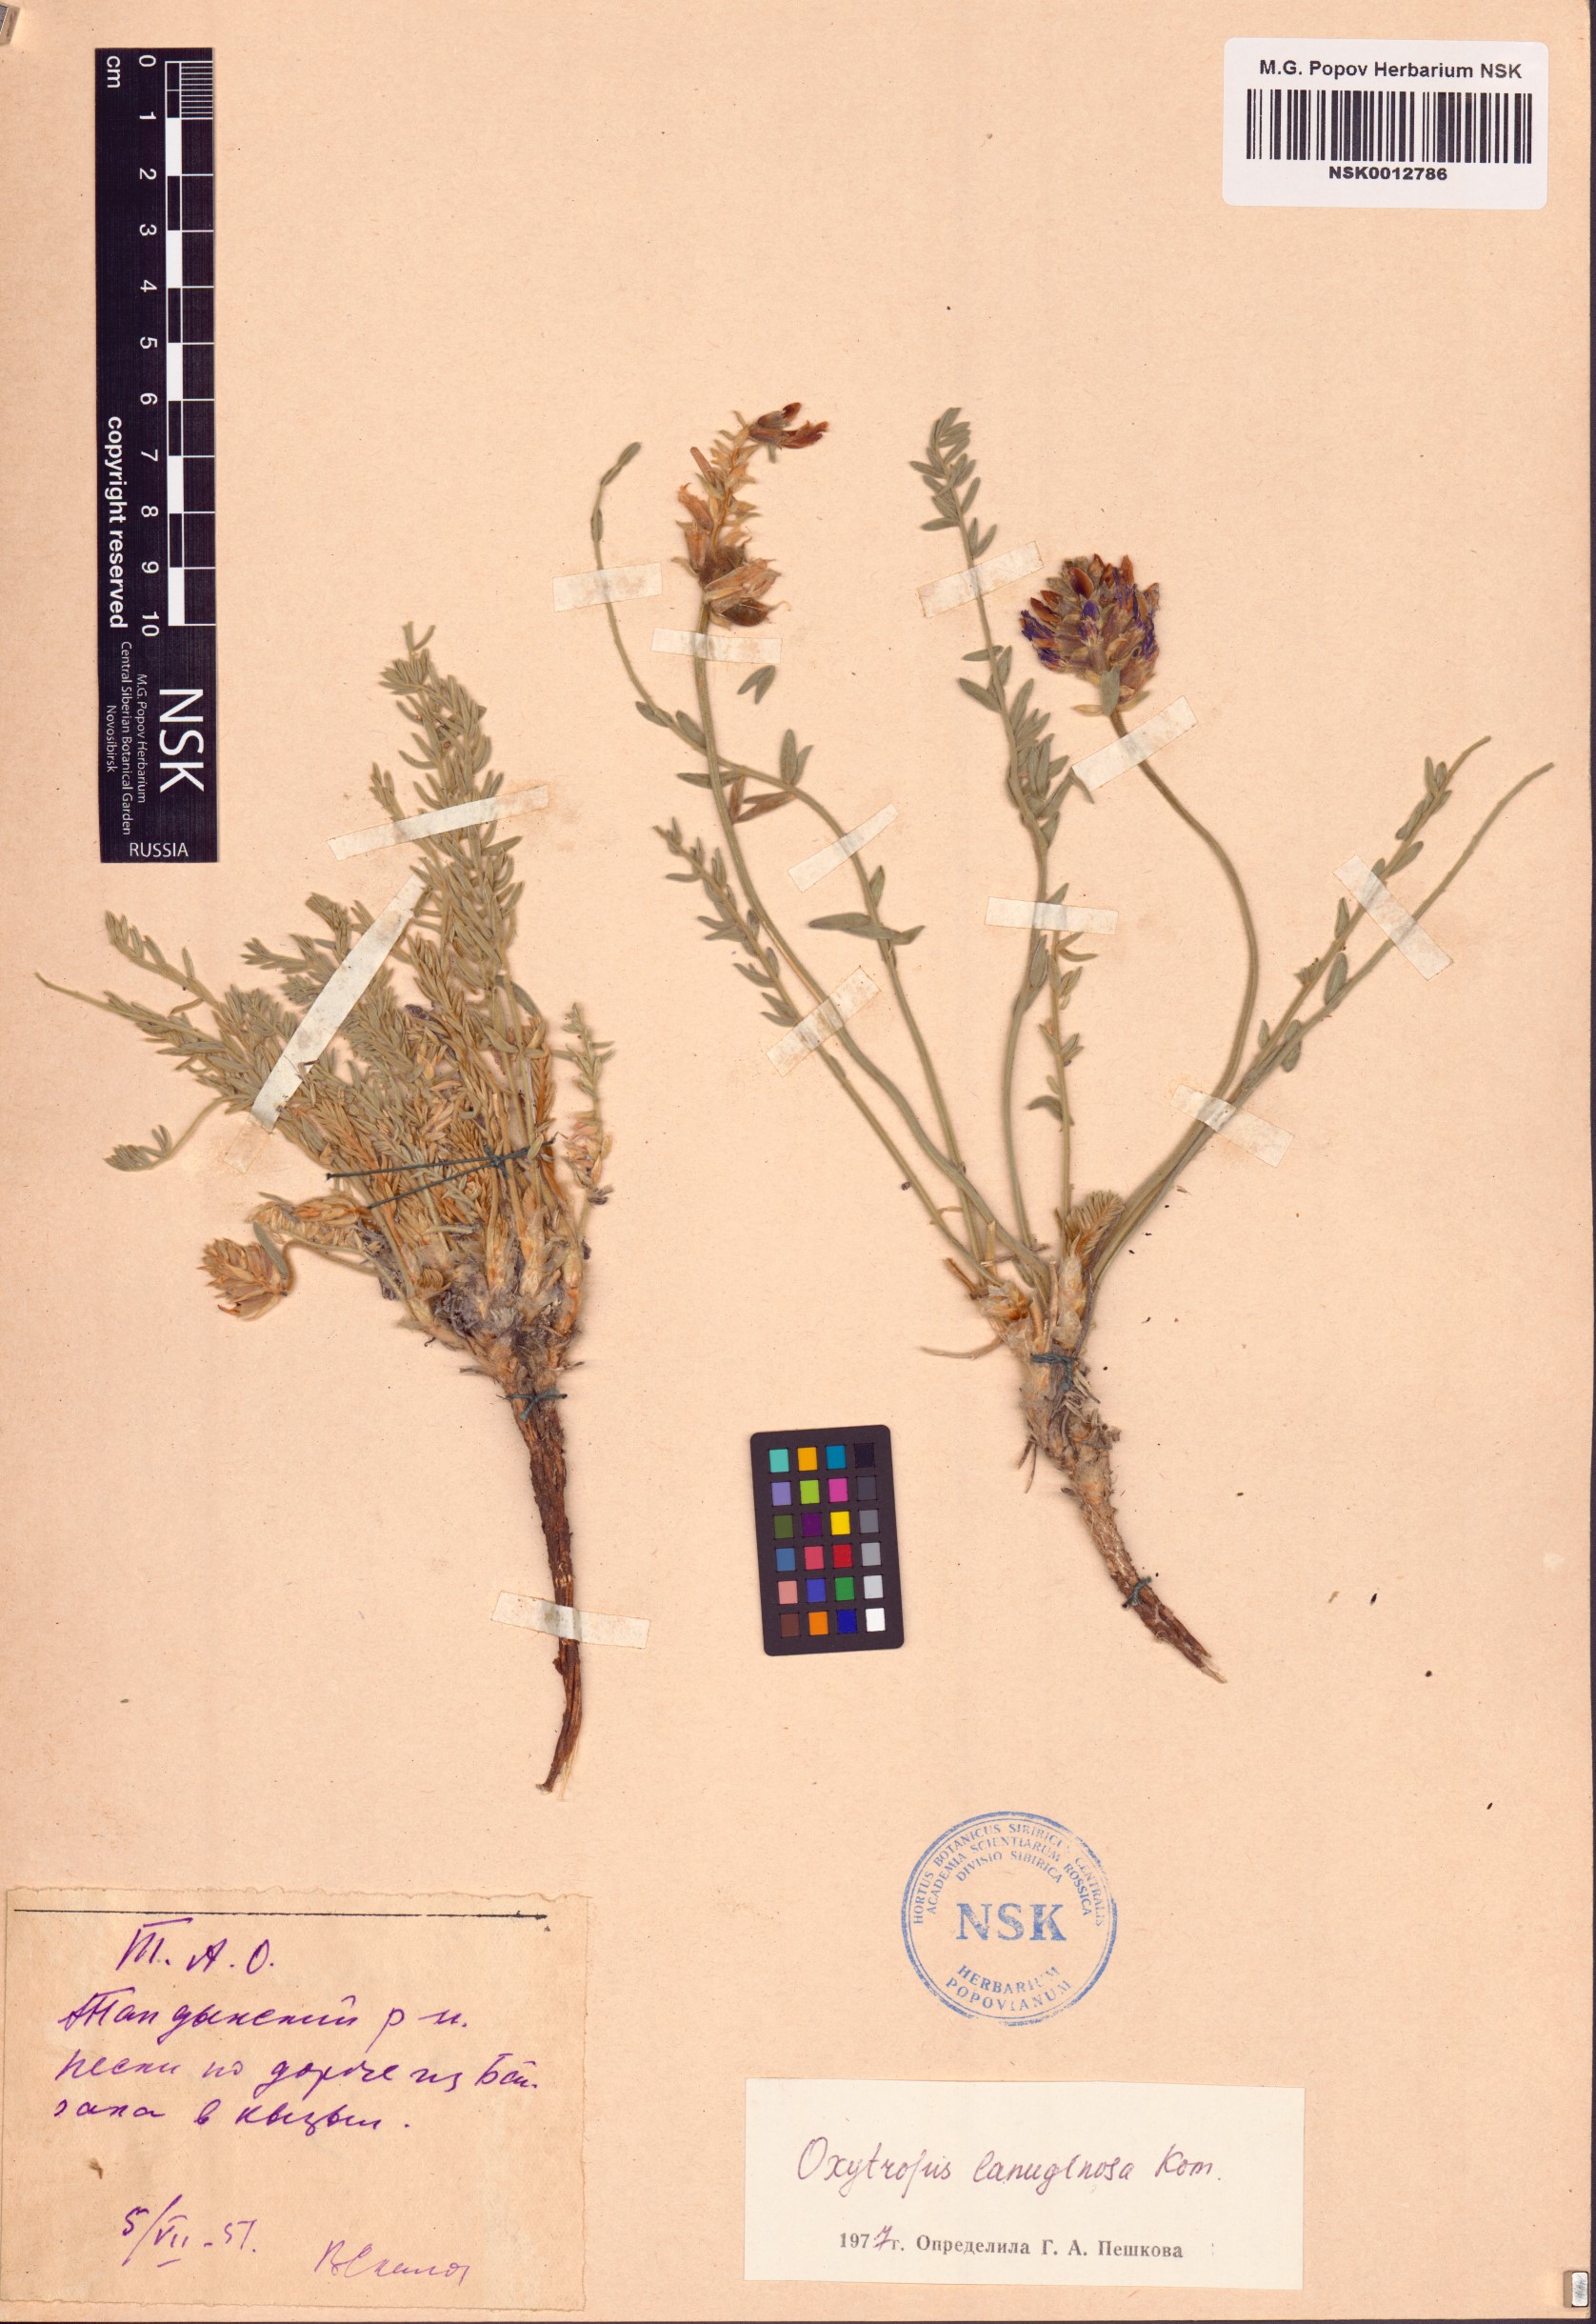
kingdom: Plantae
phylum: Tracheophyta
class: Magnoliopsida
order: Fabales
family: Fabaceae
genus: Oxytropis
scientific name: Oxytropis lanuginosa
